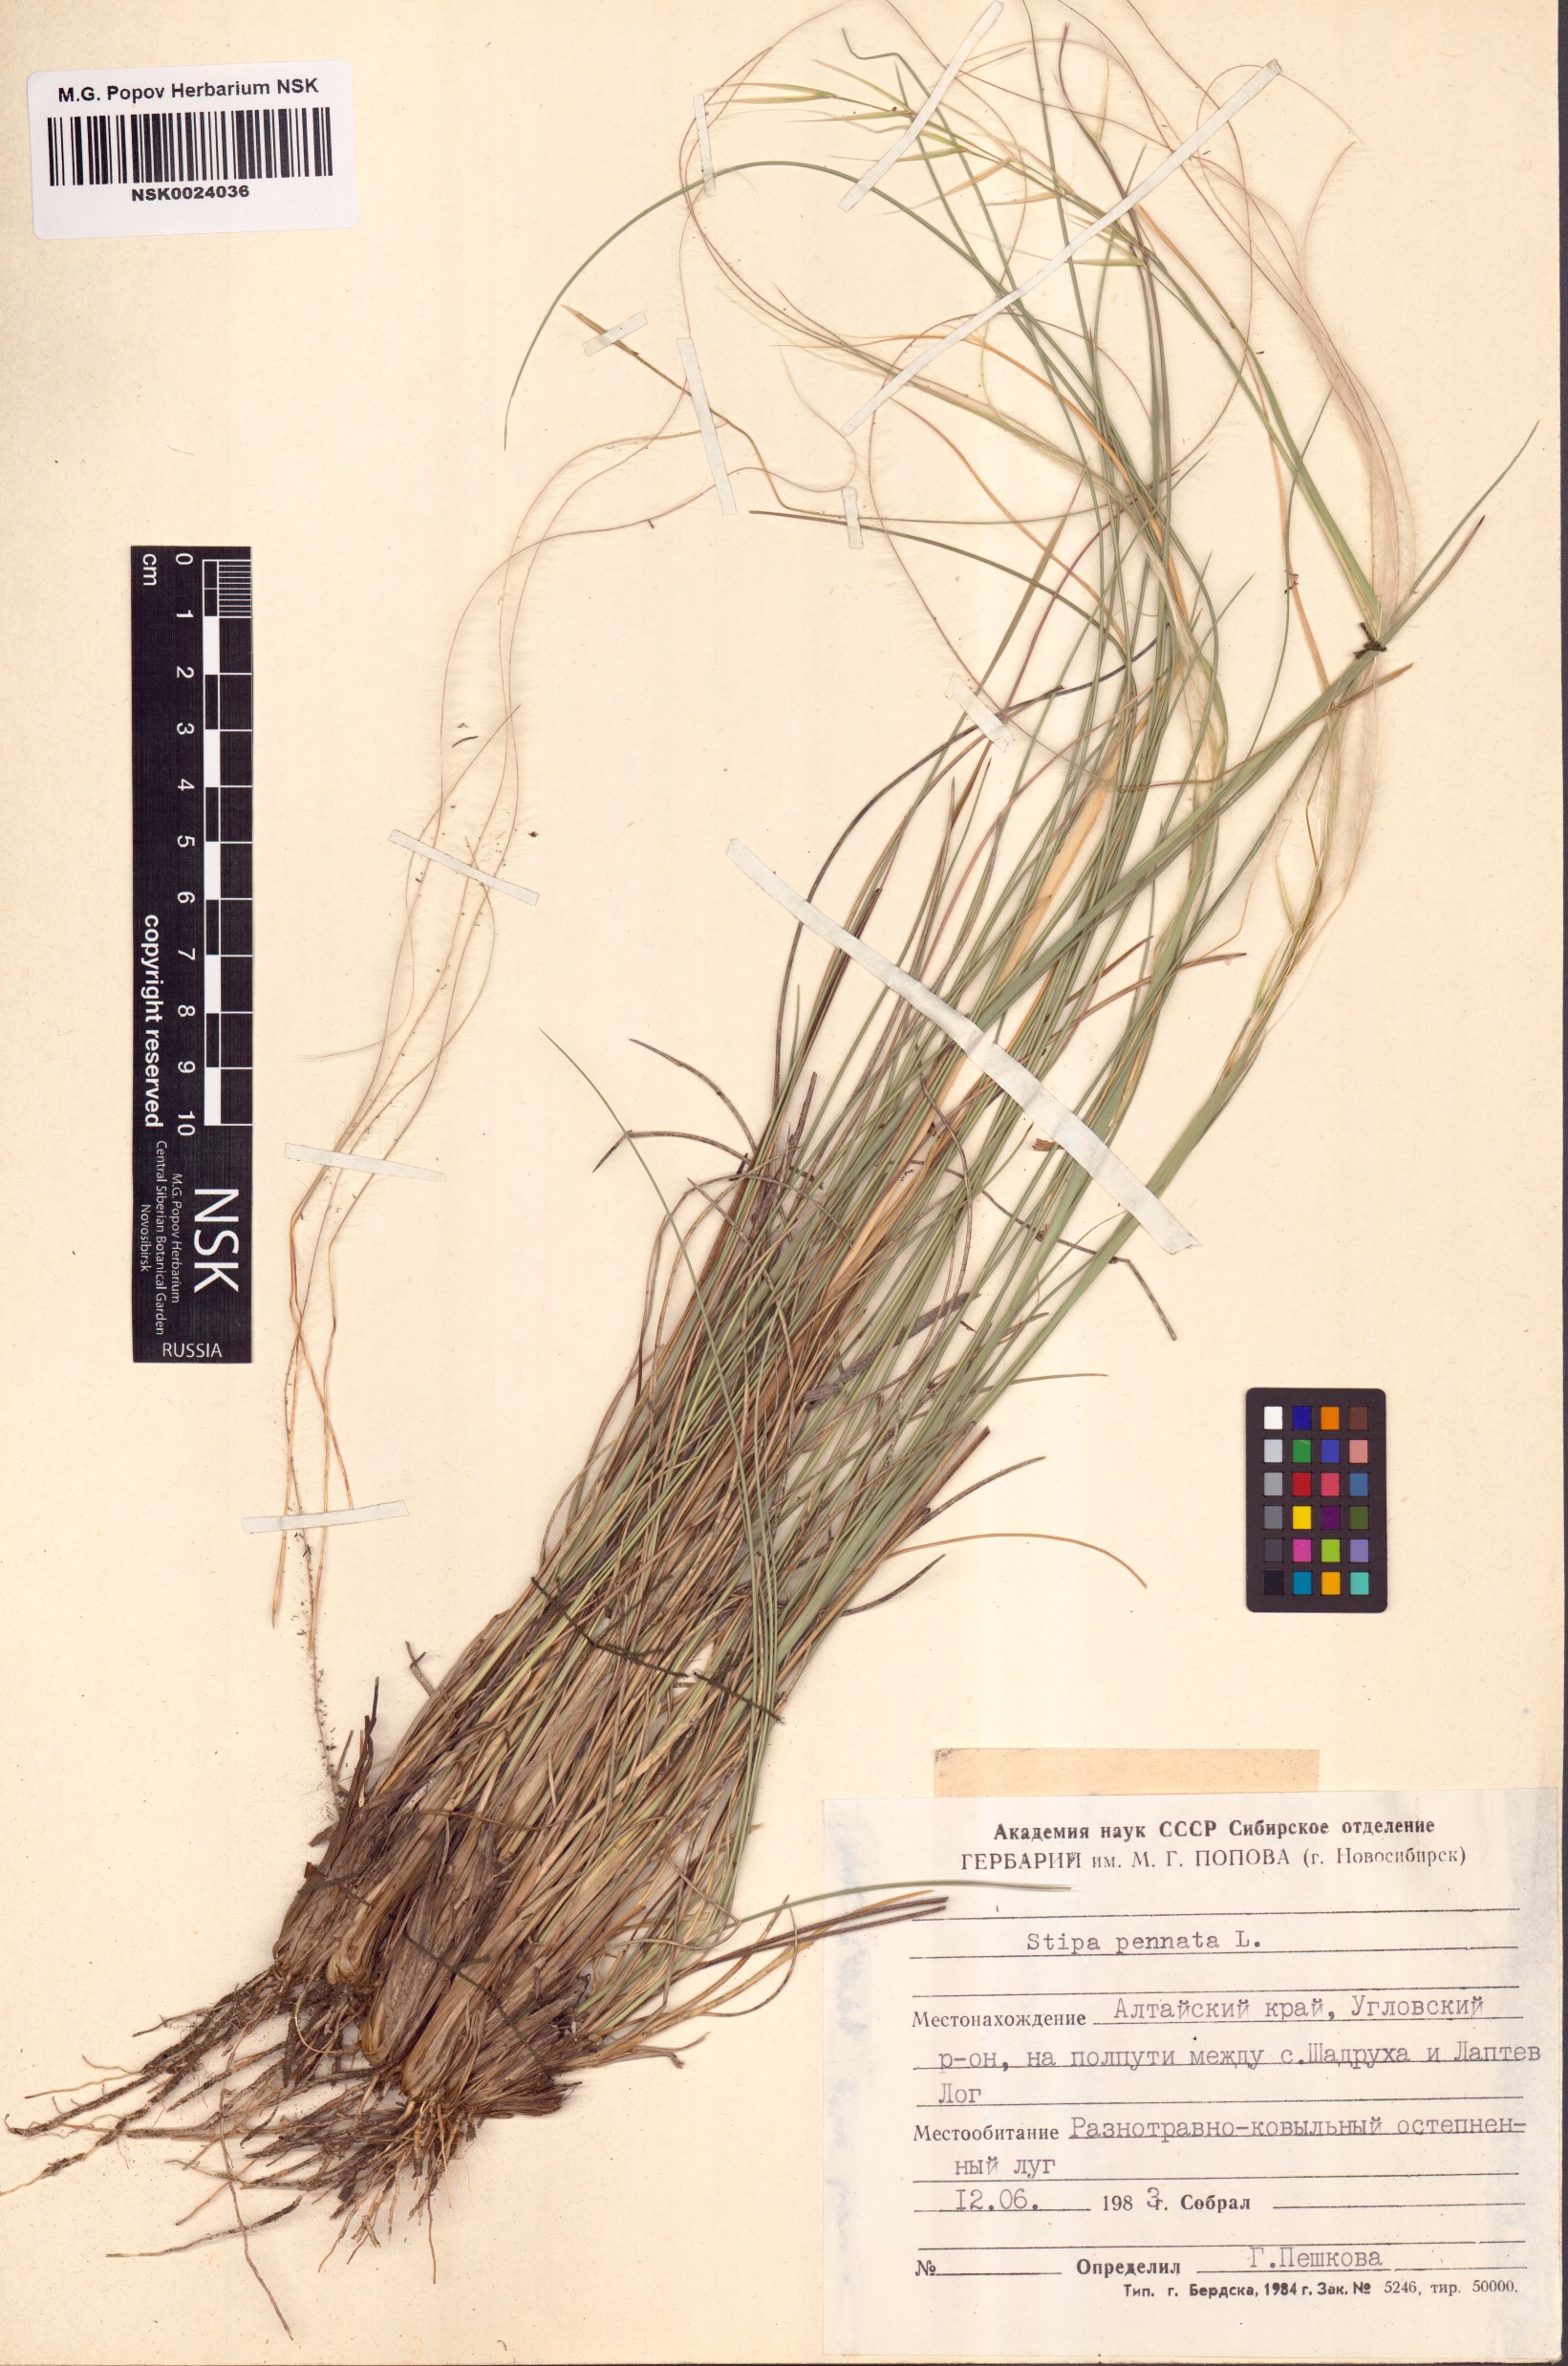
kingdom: Plantae
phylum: Tracheophyta
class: Liliopsida
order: Poales
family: Poaceae
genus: Stipa
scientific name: Stipa pennata
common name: European feather grass
